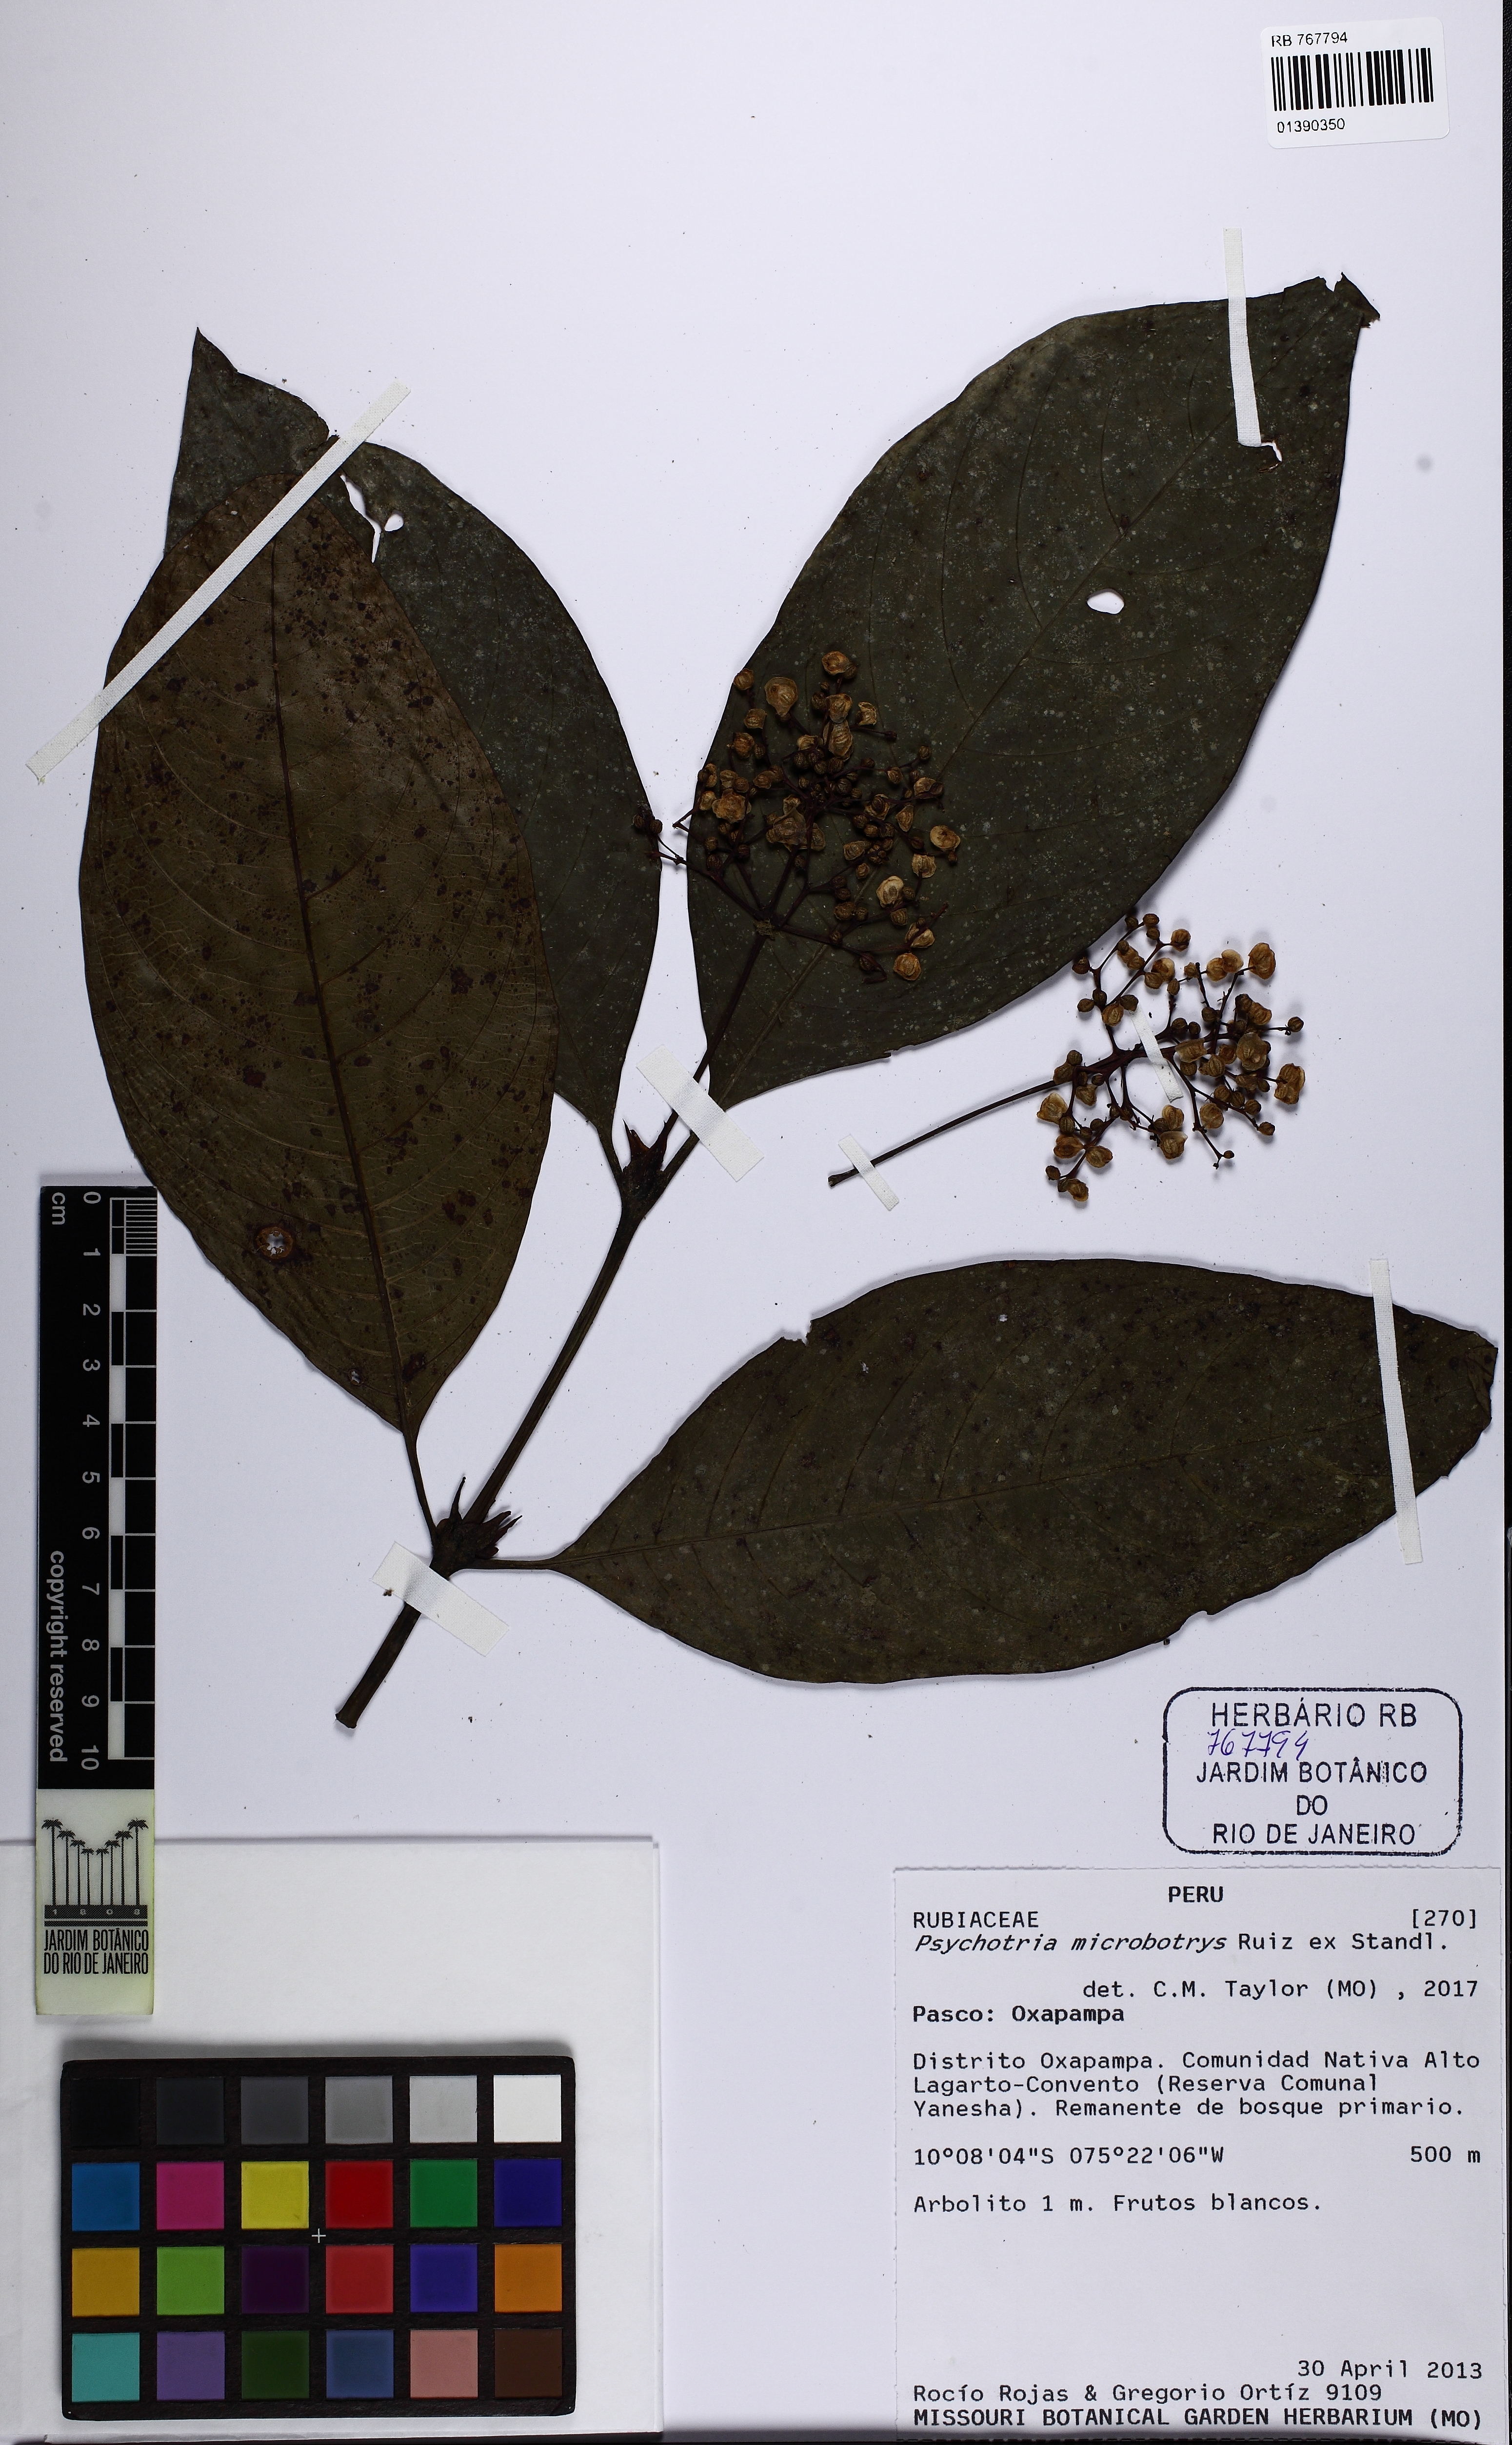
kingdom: Plantae
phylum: Tracheophyta
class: Magnoliopsida
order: Gentianales
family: Rubiaceae
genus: Palicourea
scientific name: Palicourea microbotrys
